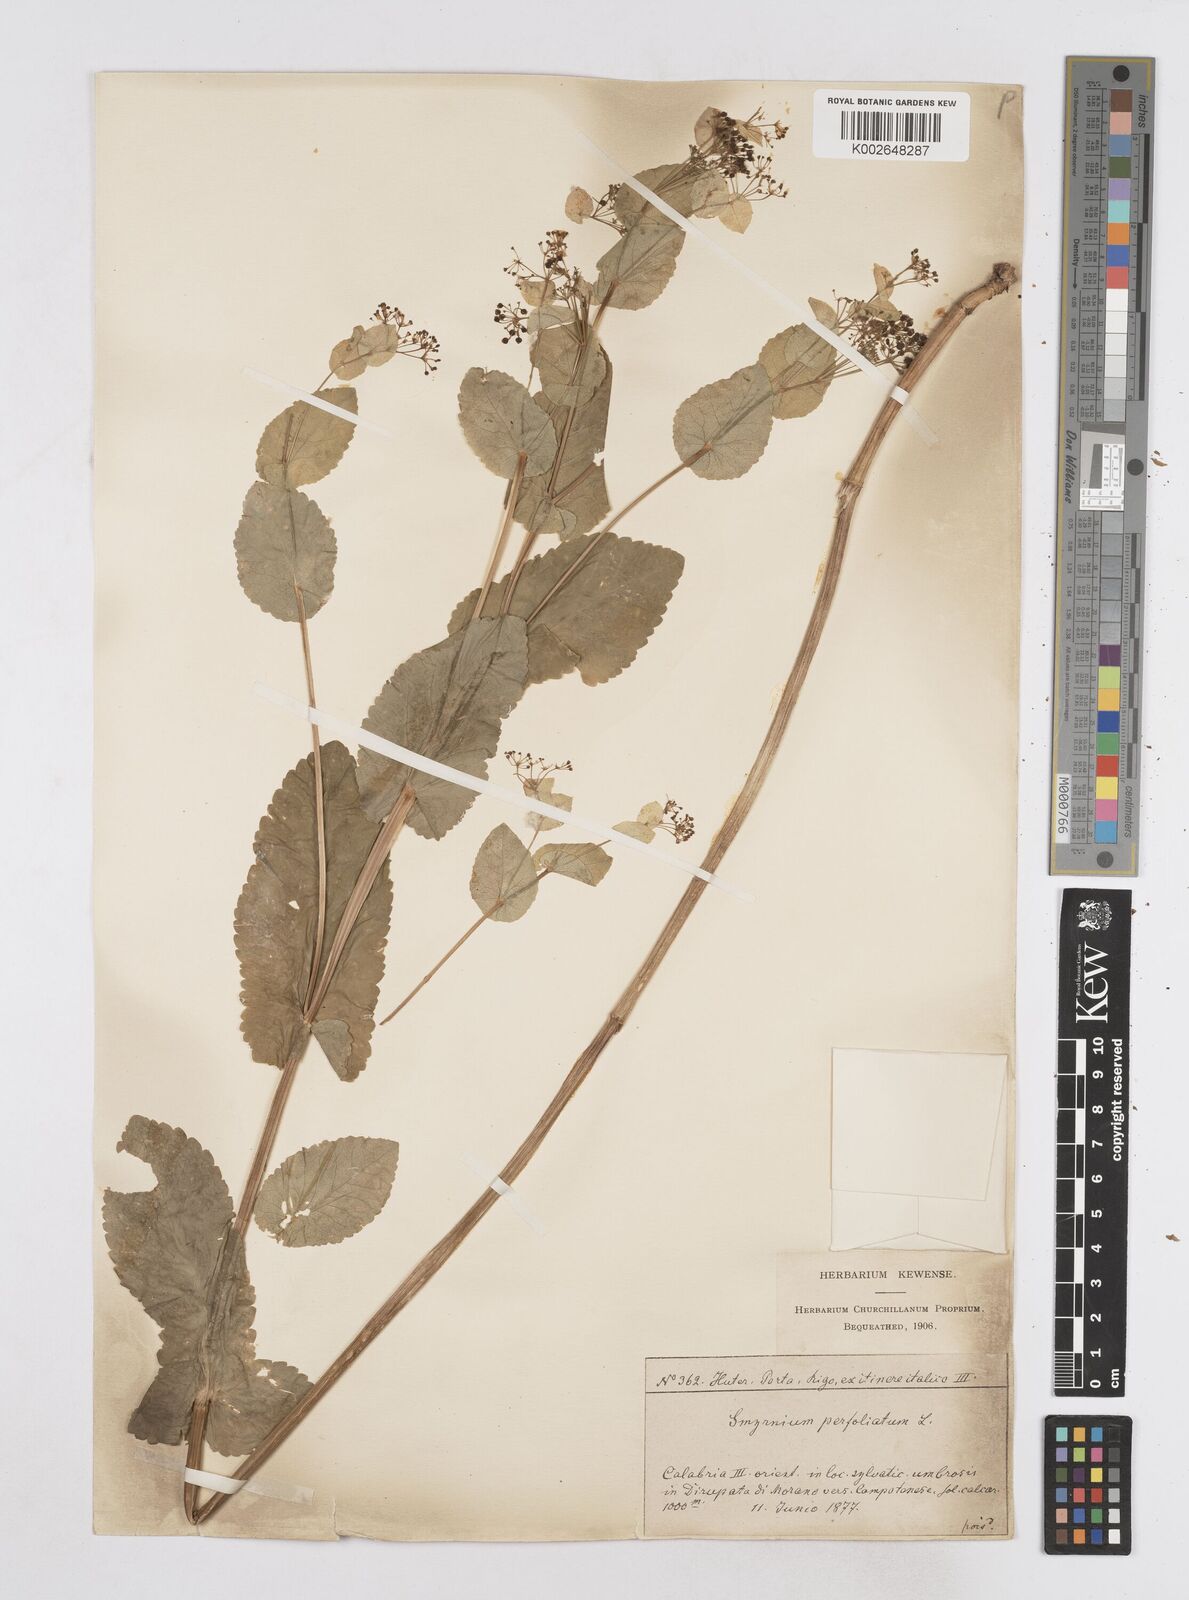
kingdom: Plantae
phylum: Tracheophyta
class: Magnoliopsida
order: Apiales
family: Apiaceae
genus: Smyrnium
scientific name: Smyrnium perfoliatum
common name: Perfoliate alexanders
